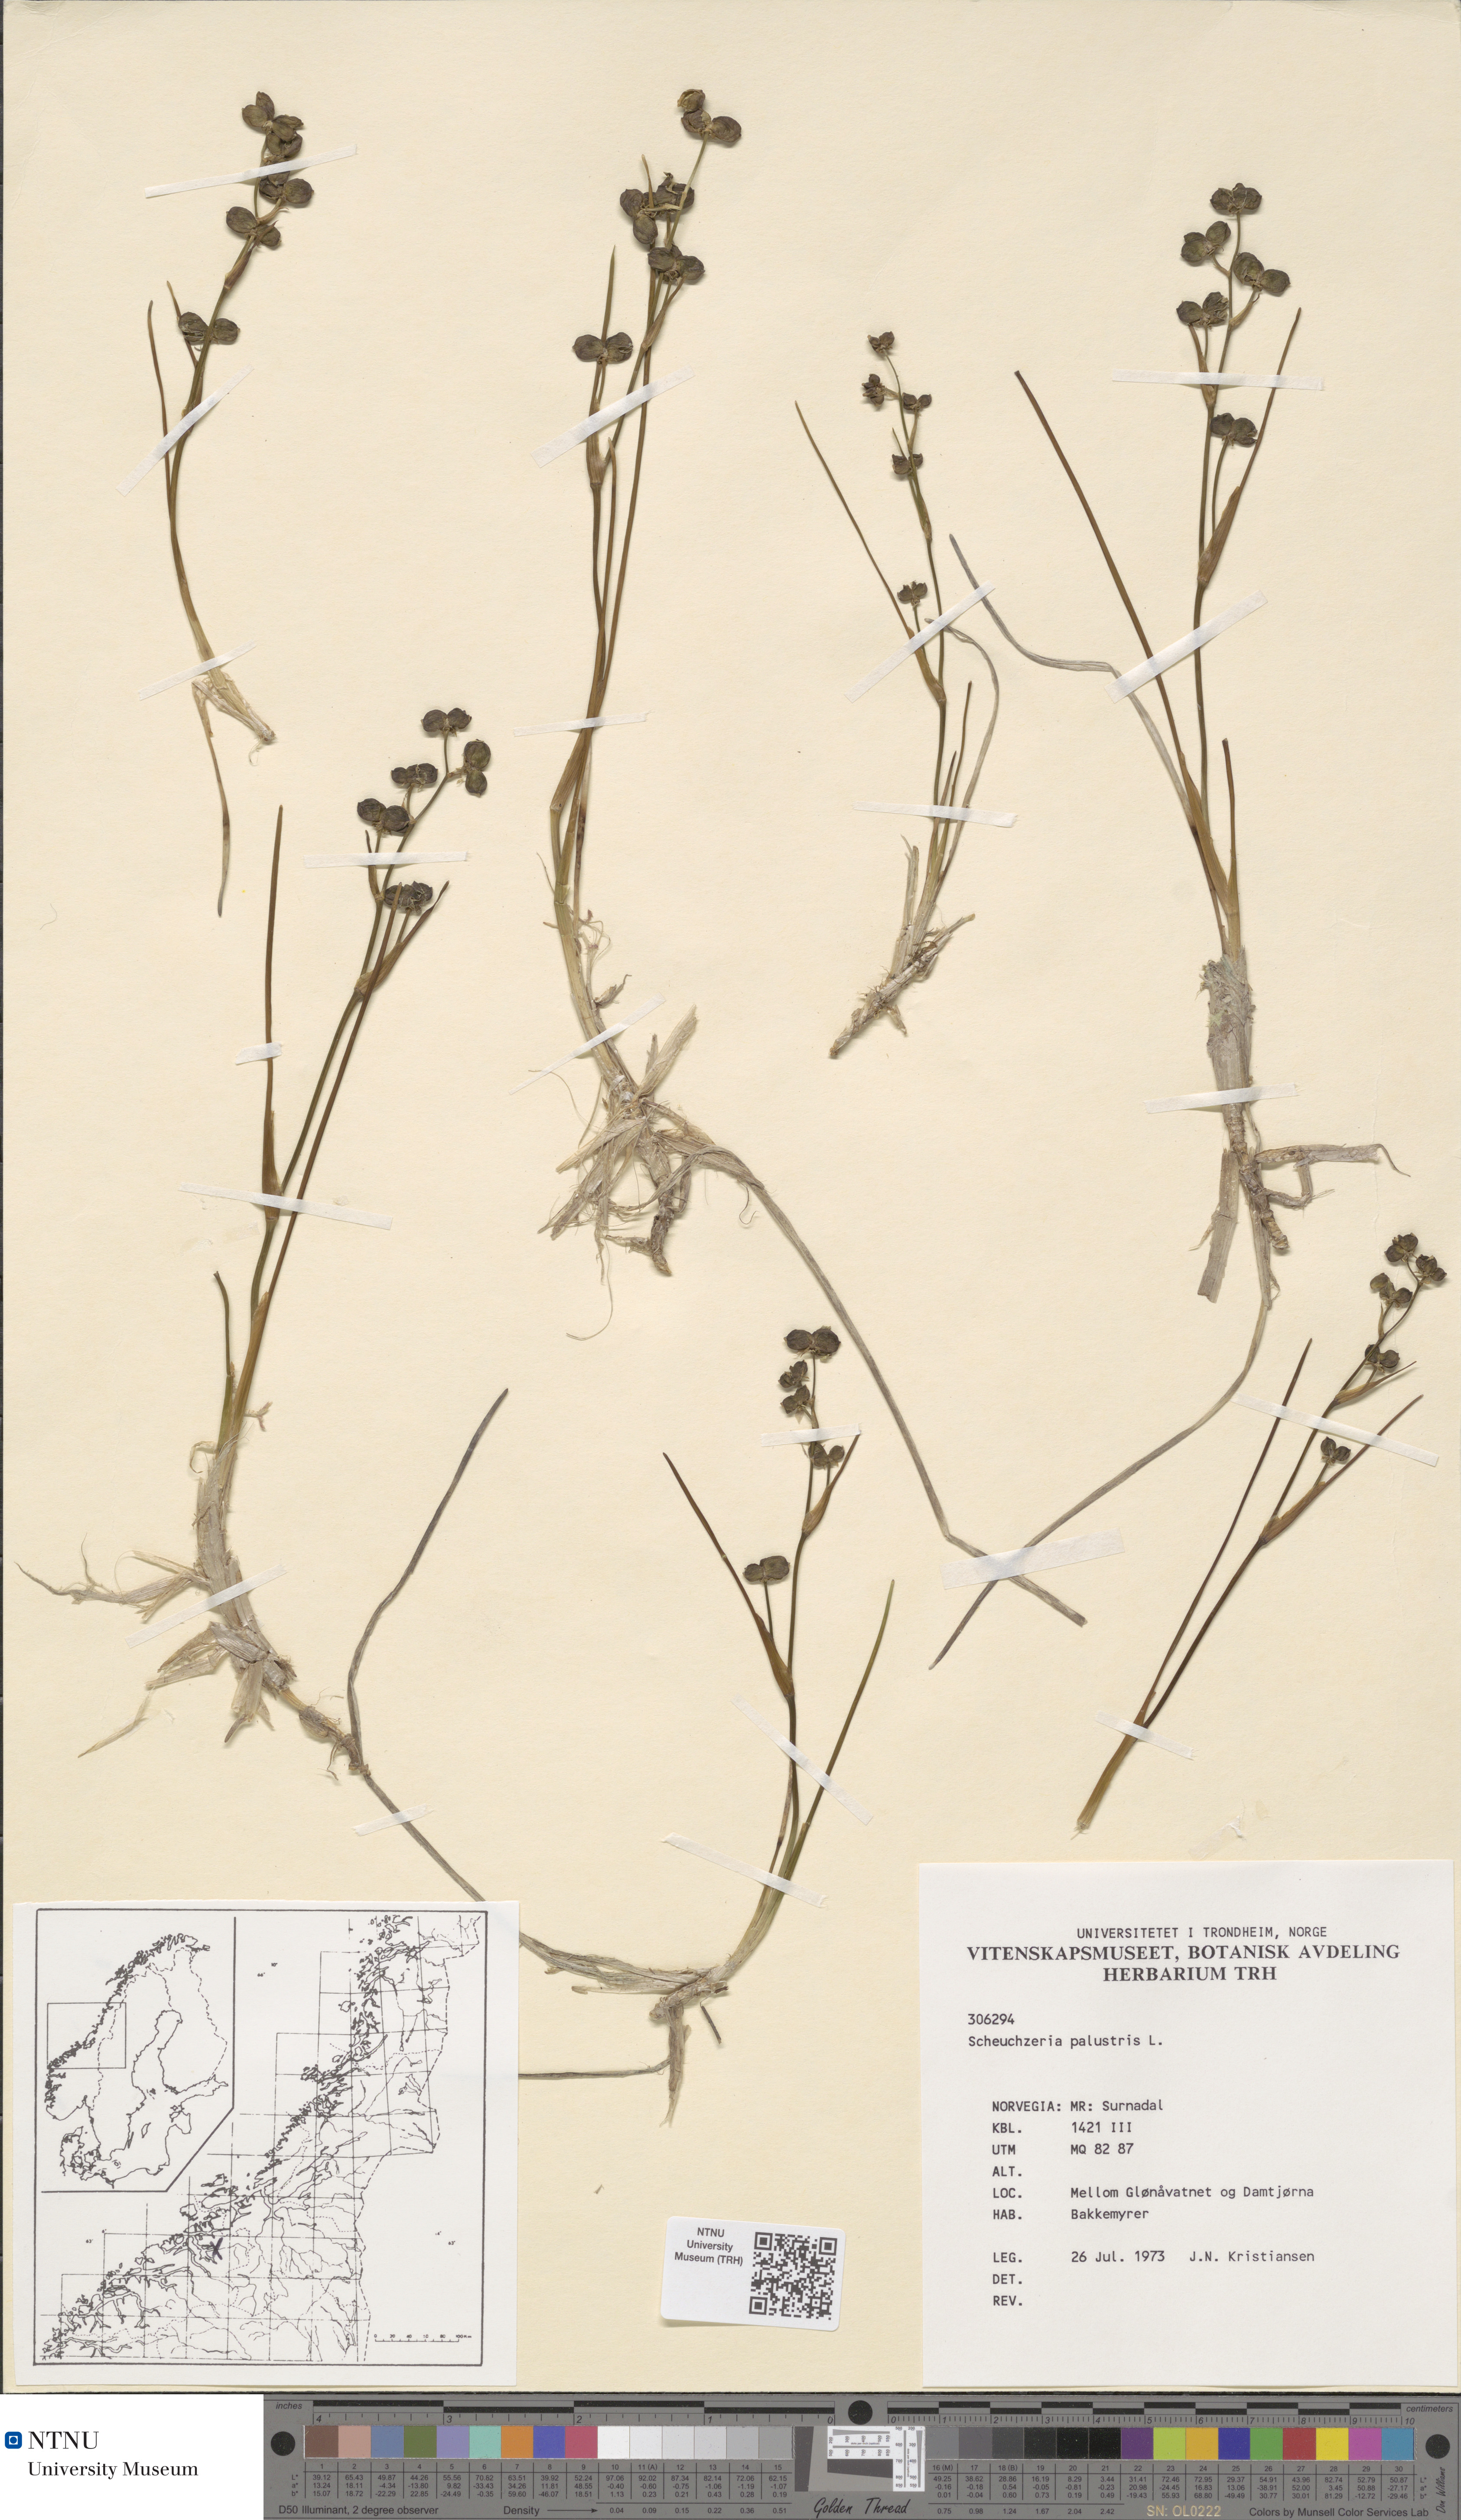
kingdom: Plantae
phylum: Tracheophyta
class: Liliopsida
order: Alismatales
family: Scheuchzeriaceae
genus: Scheuchzeria
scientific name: Scheuchzeria palustris
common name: Rannoch-rush
